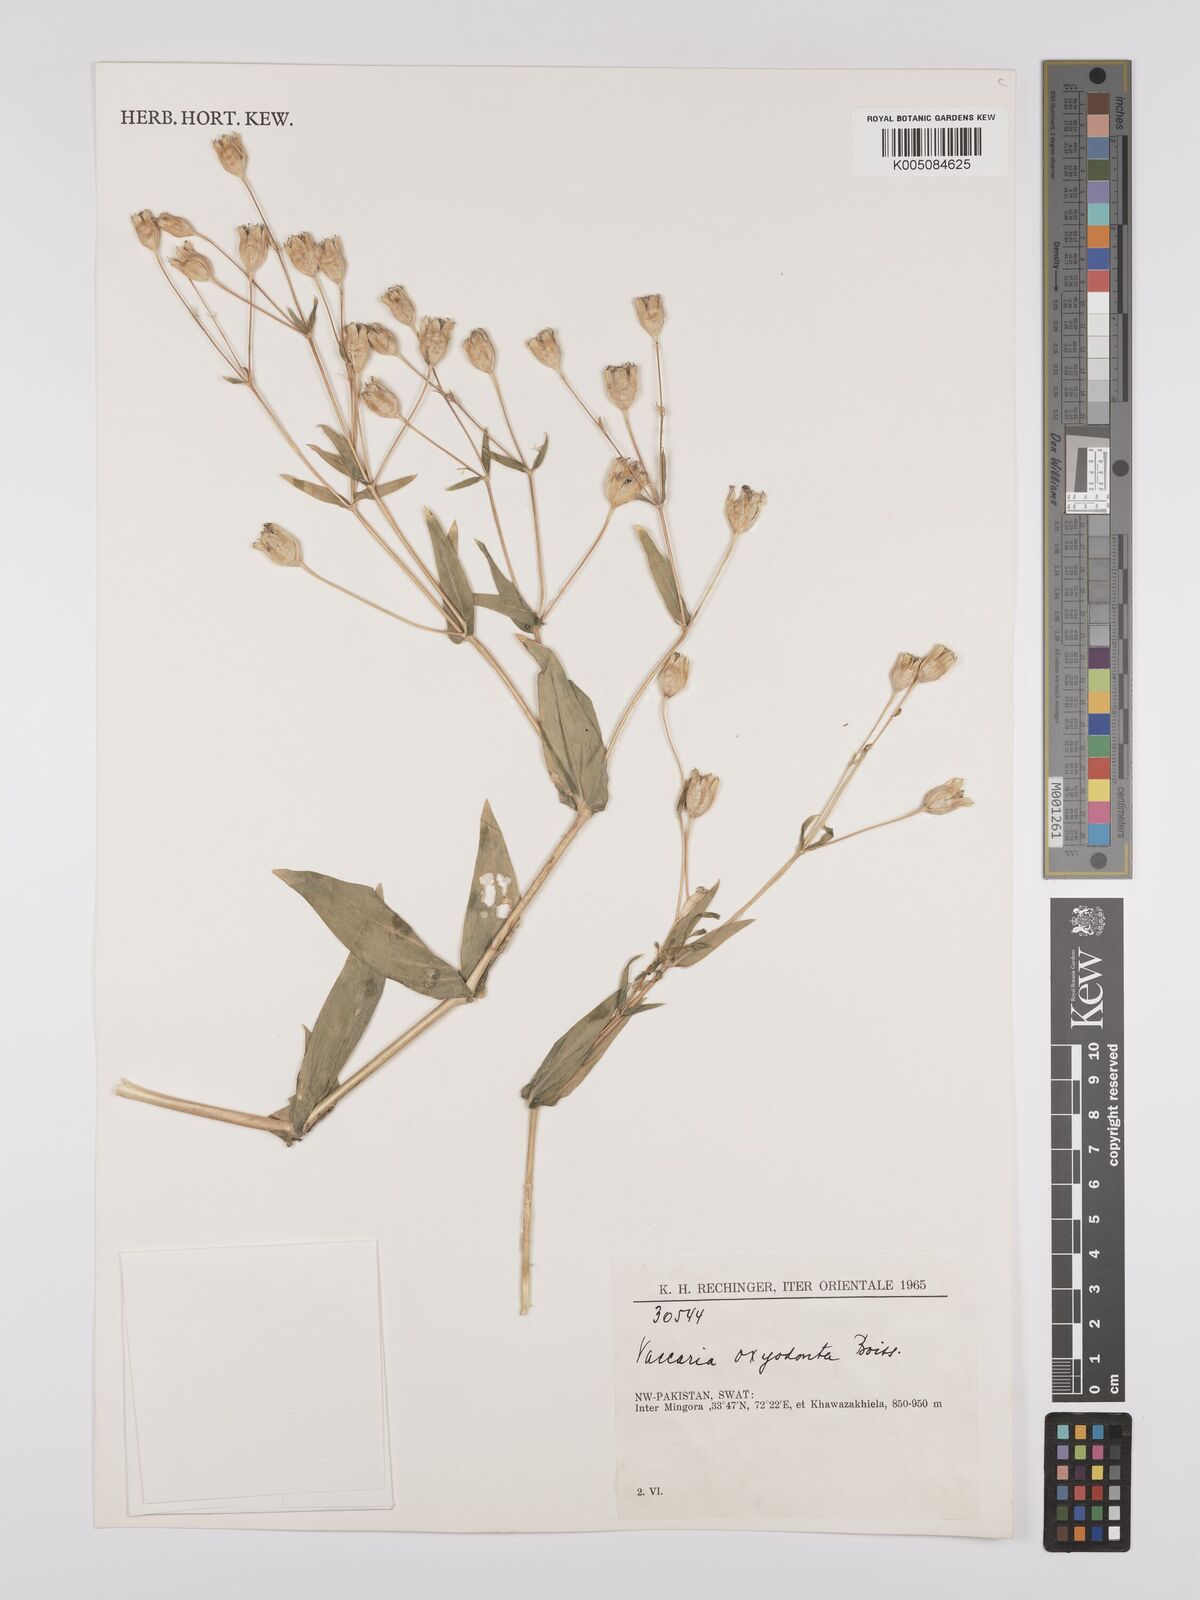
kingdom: Plantae
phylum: Tracheophyta
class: Magnoliopsida
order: Caryophyllales
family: Caryophyllaceae
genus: Gypsophila
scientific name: Gypsophila vaccaria
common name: Cow soapwort
